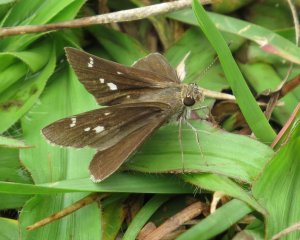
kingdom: Animalia
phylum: Arthropoda
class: Insecta
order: Lepidoptera
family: Hesperiidae
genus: Lerema
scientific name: Lerema accius
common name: Clouded Skipper
